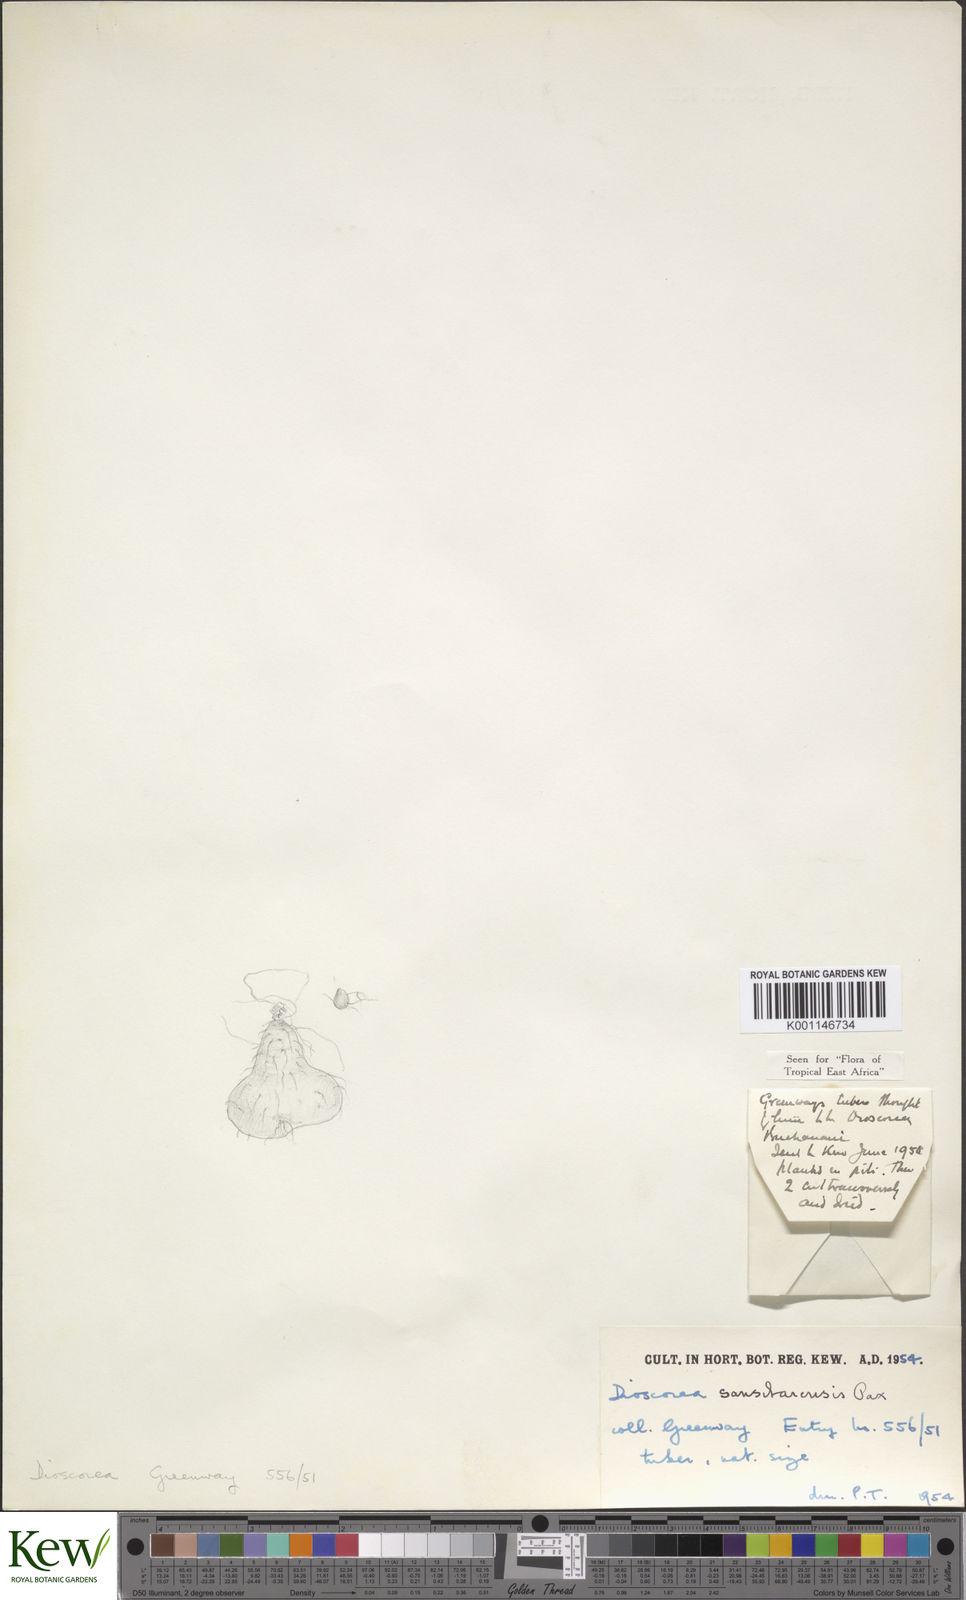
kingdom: Plantae
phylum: Tracheophyta
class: Liliopsida
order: Dioscoreales
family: Dioscoreaceae
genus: Dioscorea
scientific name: Dioscorea sansibarensis
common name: Zanzibar yam
